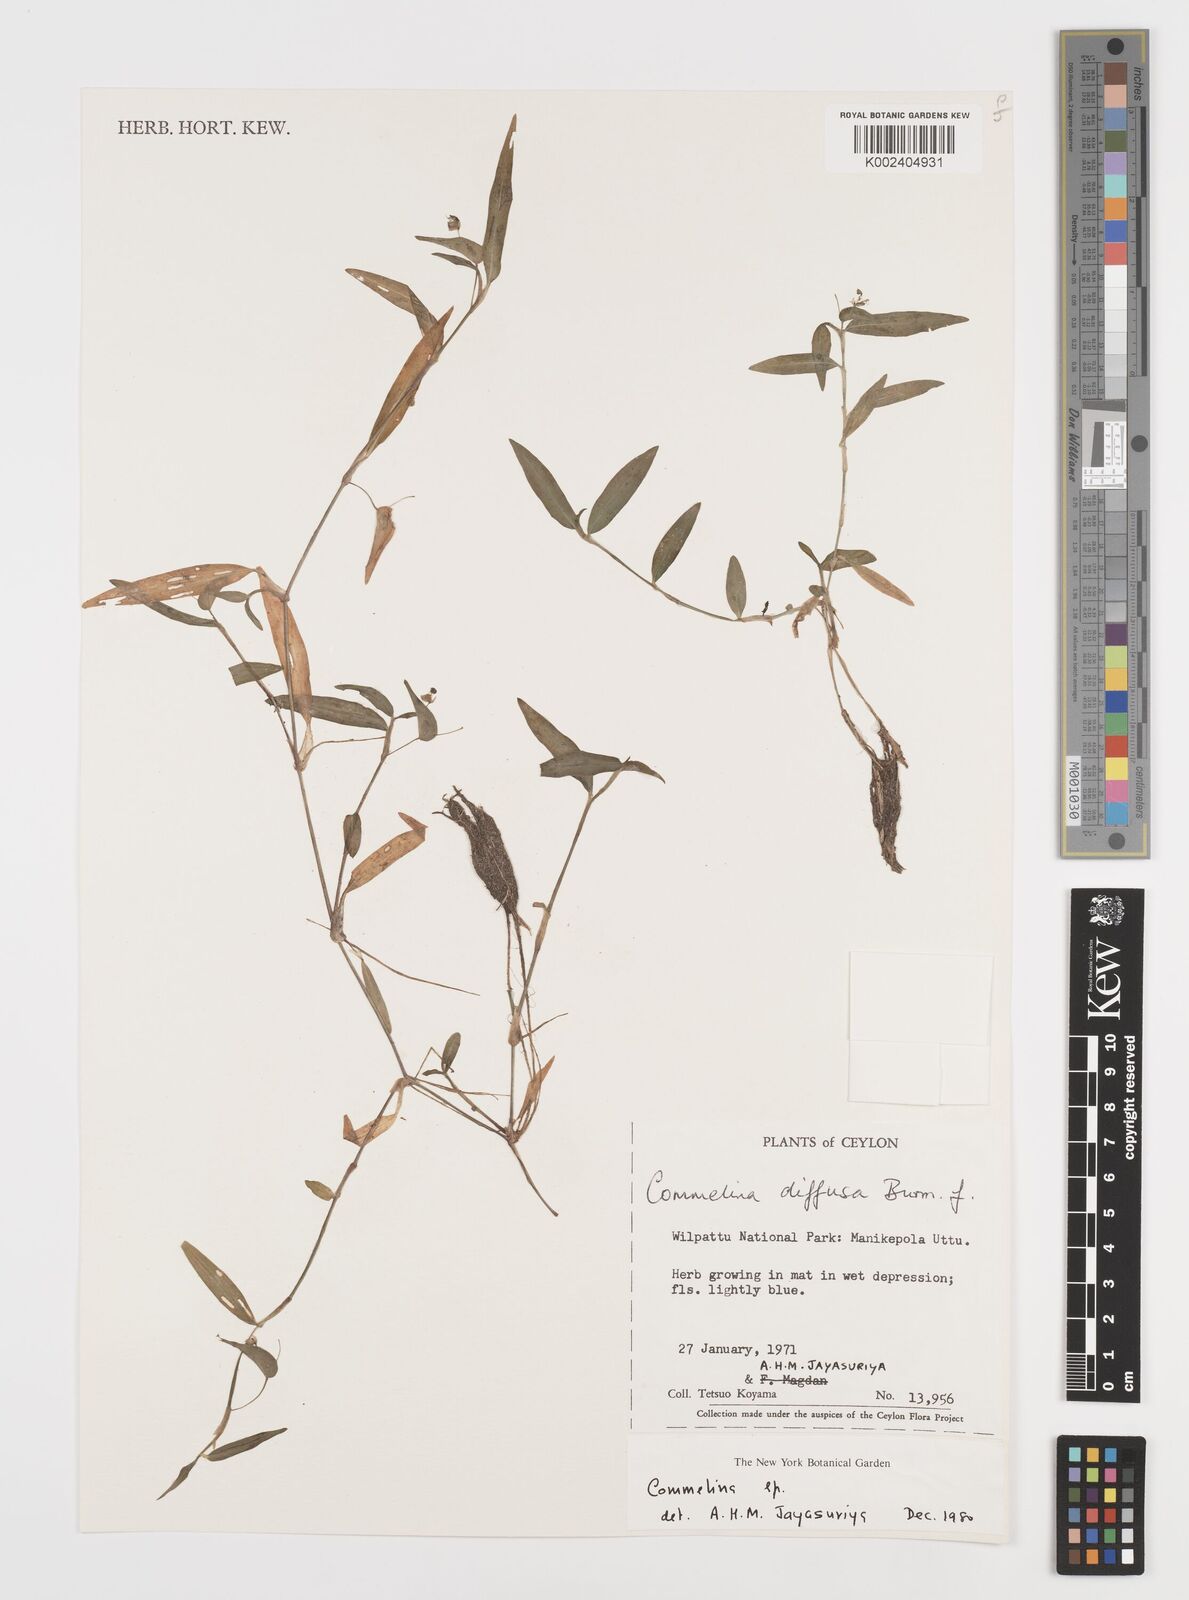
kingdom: Plantae
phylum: Tracheophyta
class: Liliopsida
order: Commelinales
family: Commelinaceae
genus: Commelina
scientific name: Commelina diffusa
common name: Climbing dayflower
